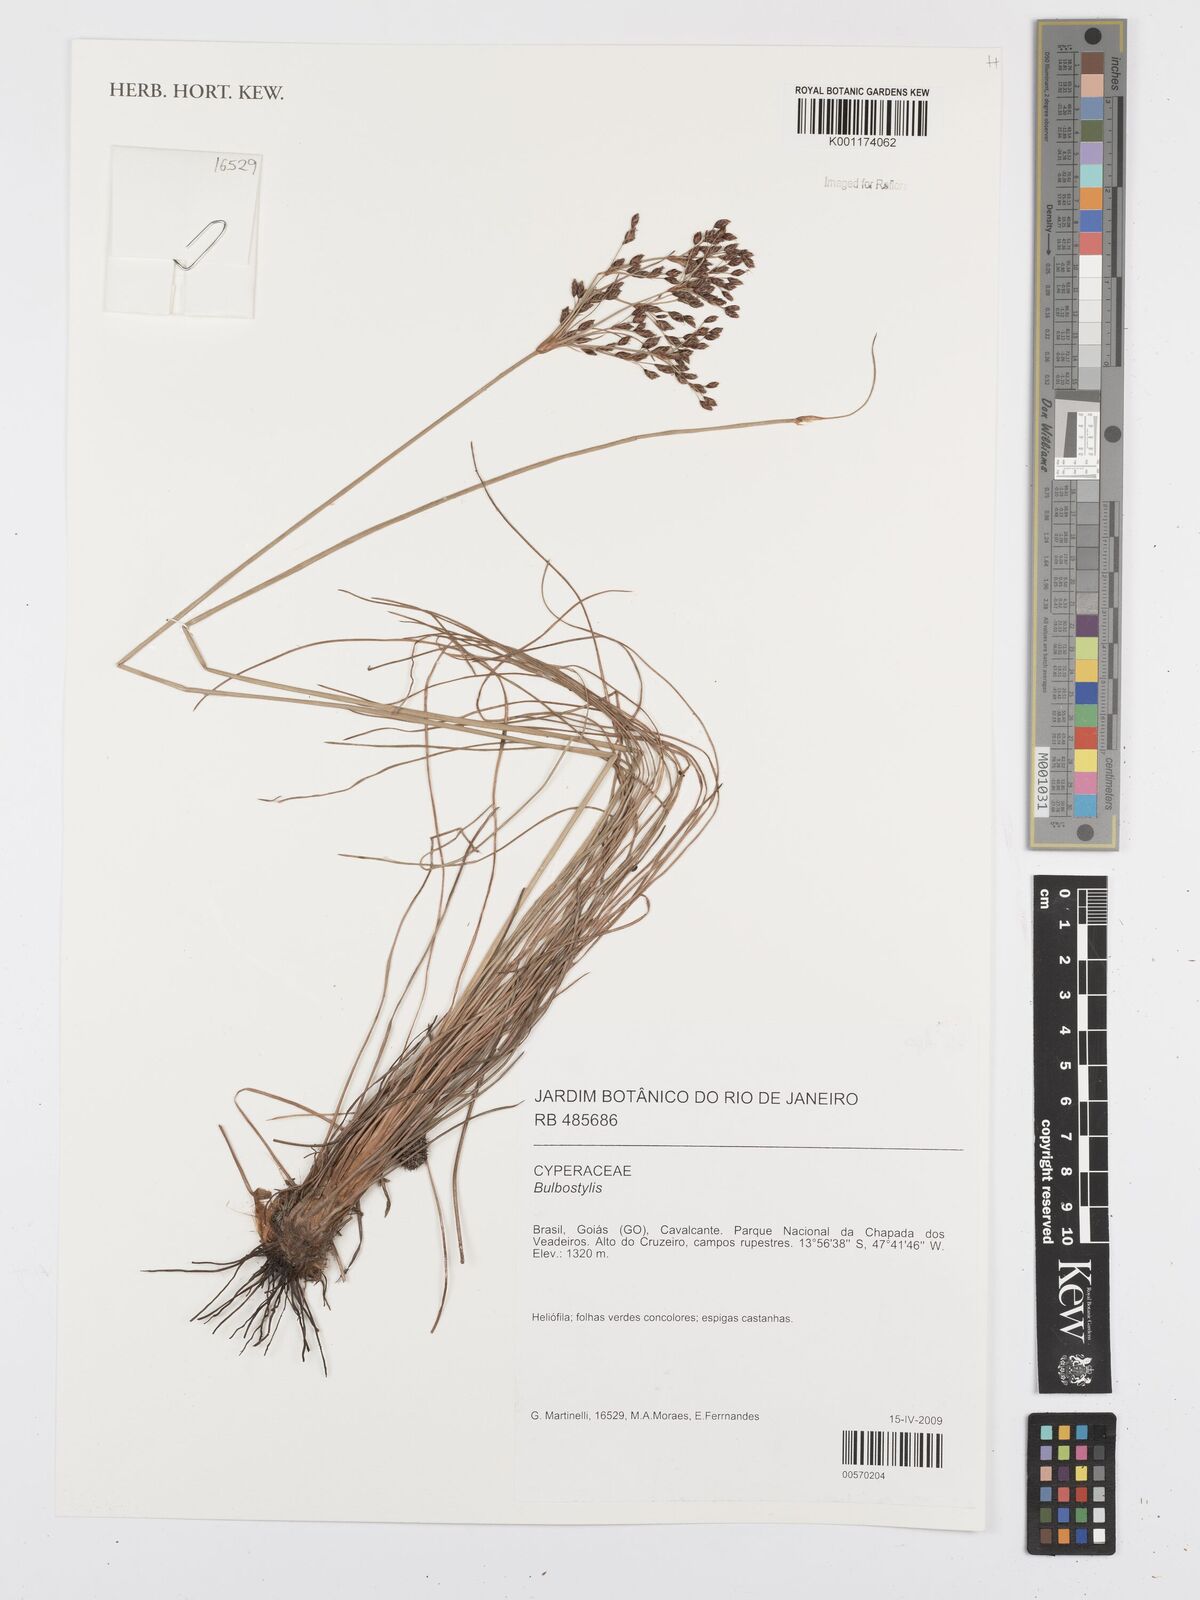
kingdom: Plantae
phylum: Tracheophyta
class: Liliopsida
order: Poales
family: Cyperaceae
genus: Bulbostylis
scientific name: Bulbostylis
